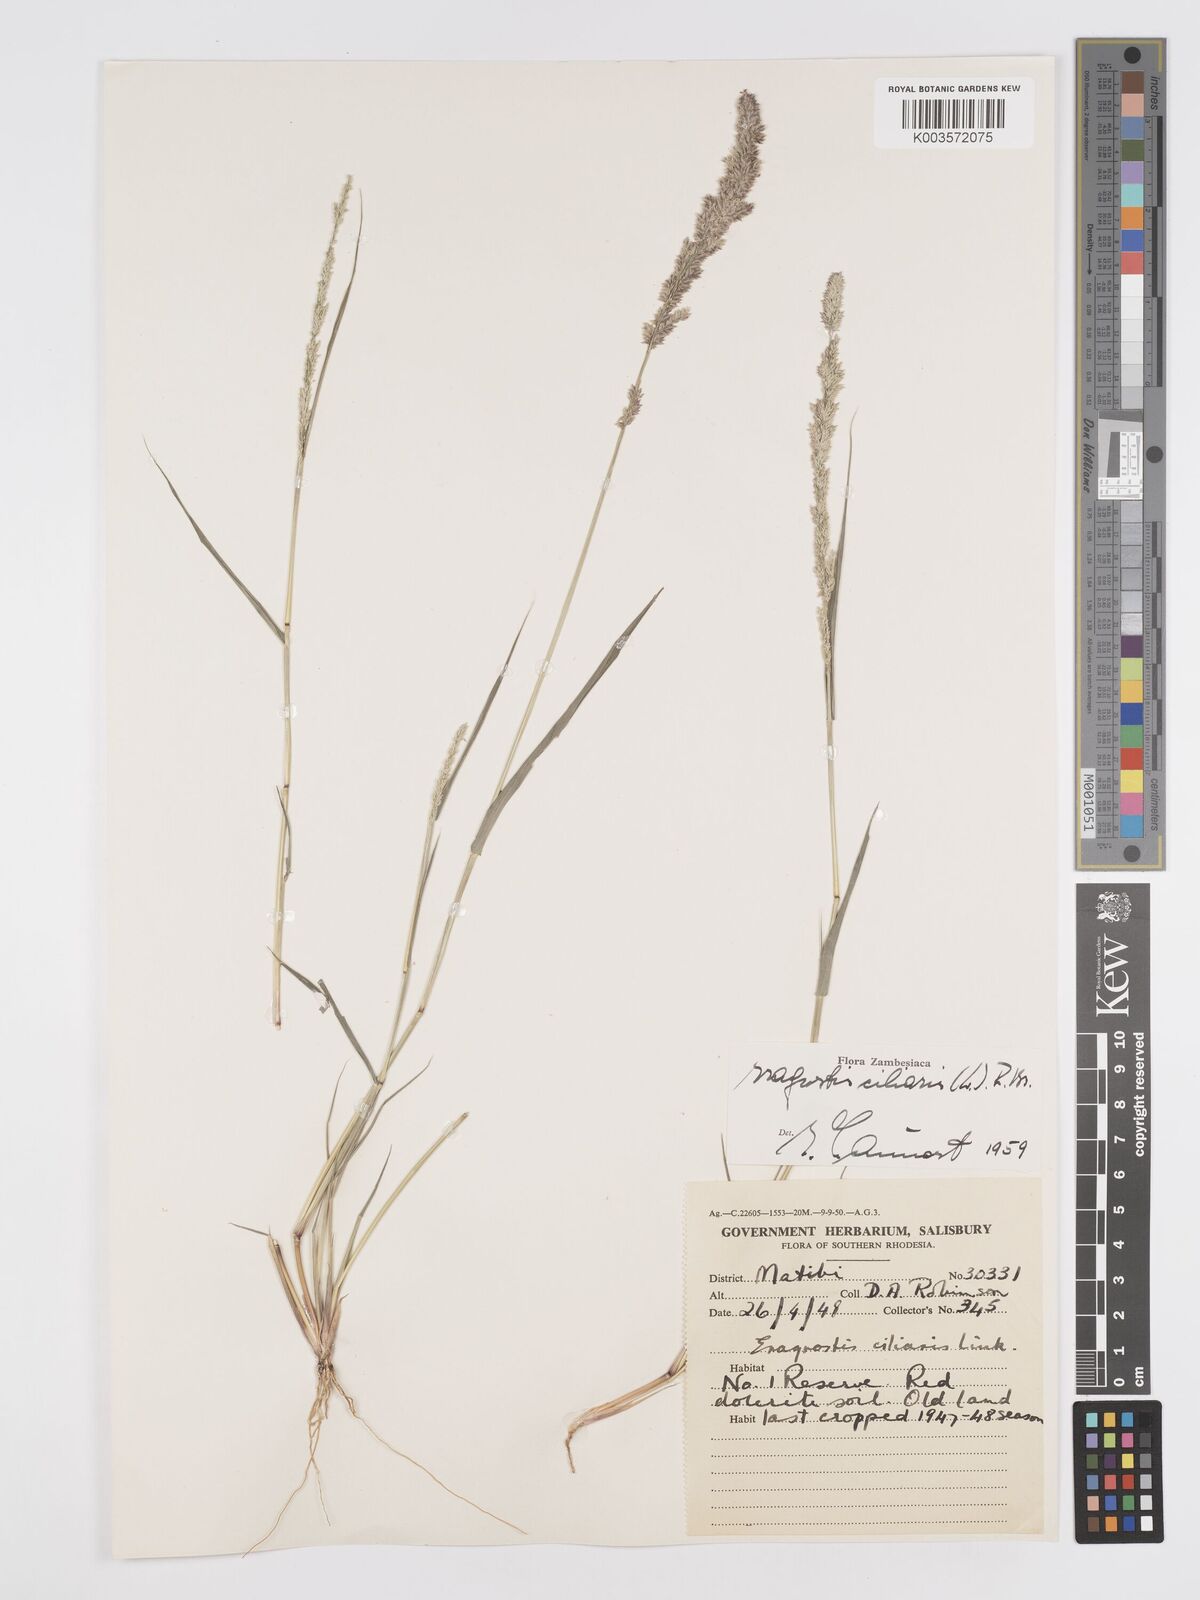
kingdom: Plantae
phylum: Tracheophyta
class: Liliopsida
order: Poales
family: Poaceae
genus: Eragrostis
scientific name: Eragrostis ciliaris
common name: Gophertail lovegrass
